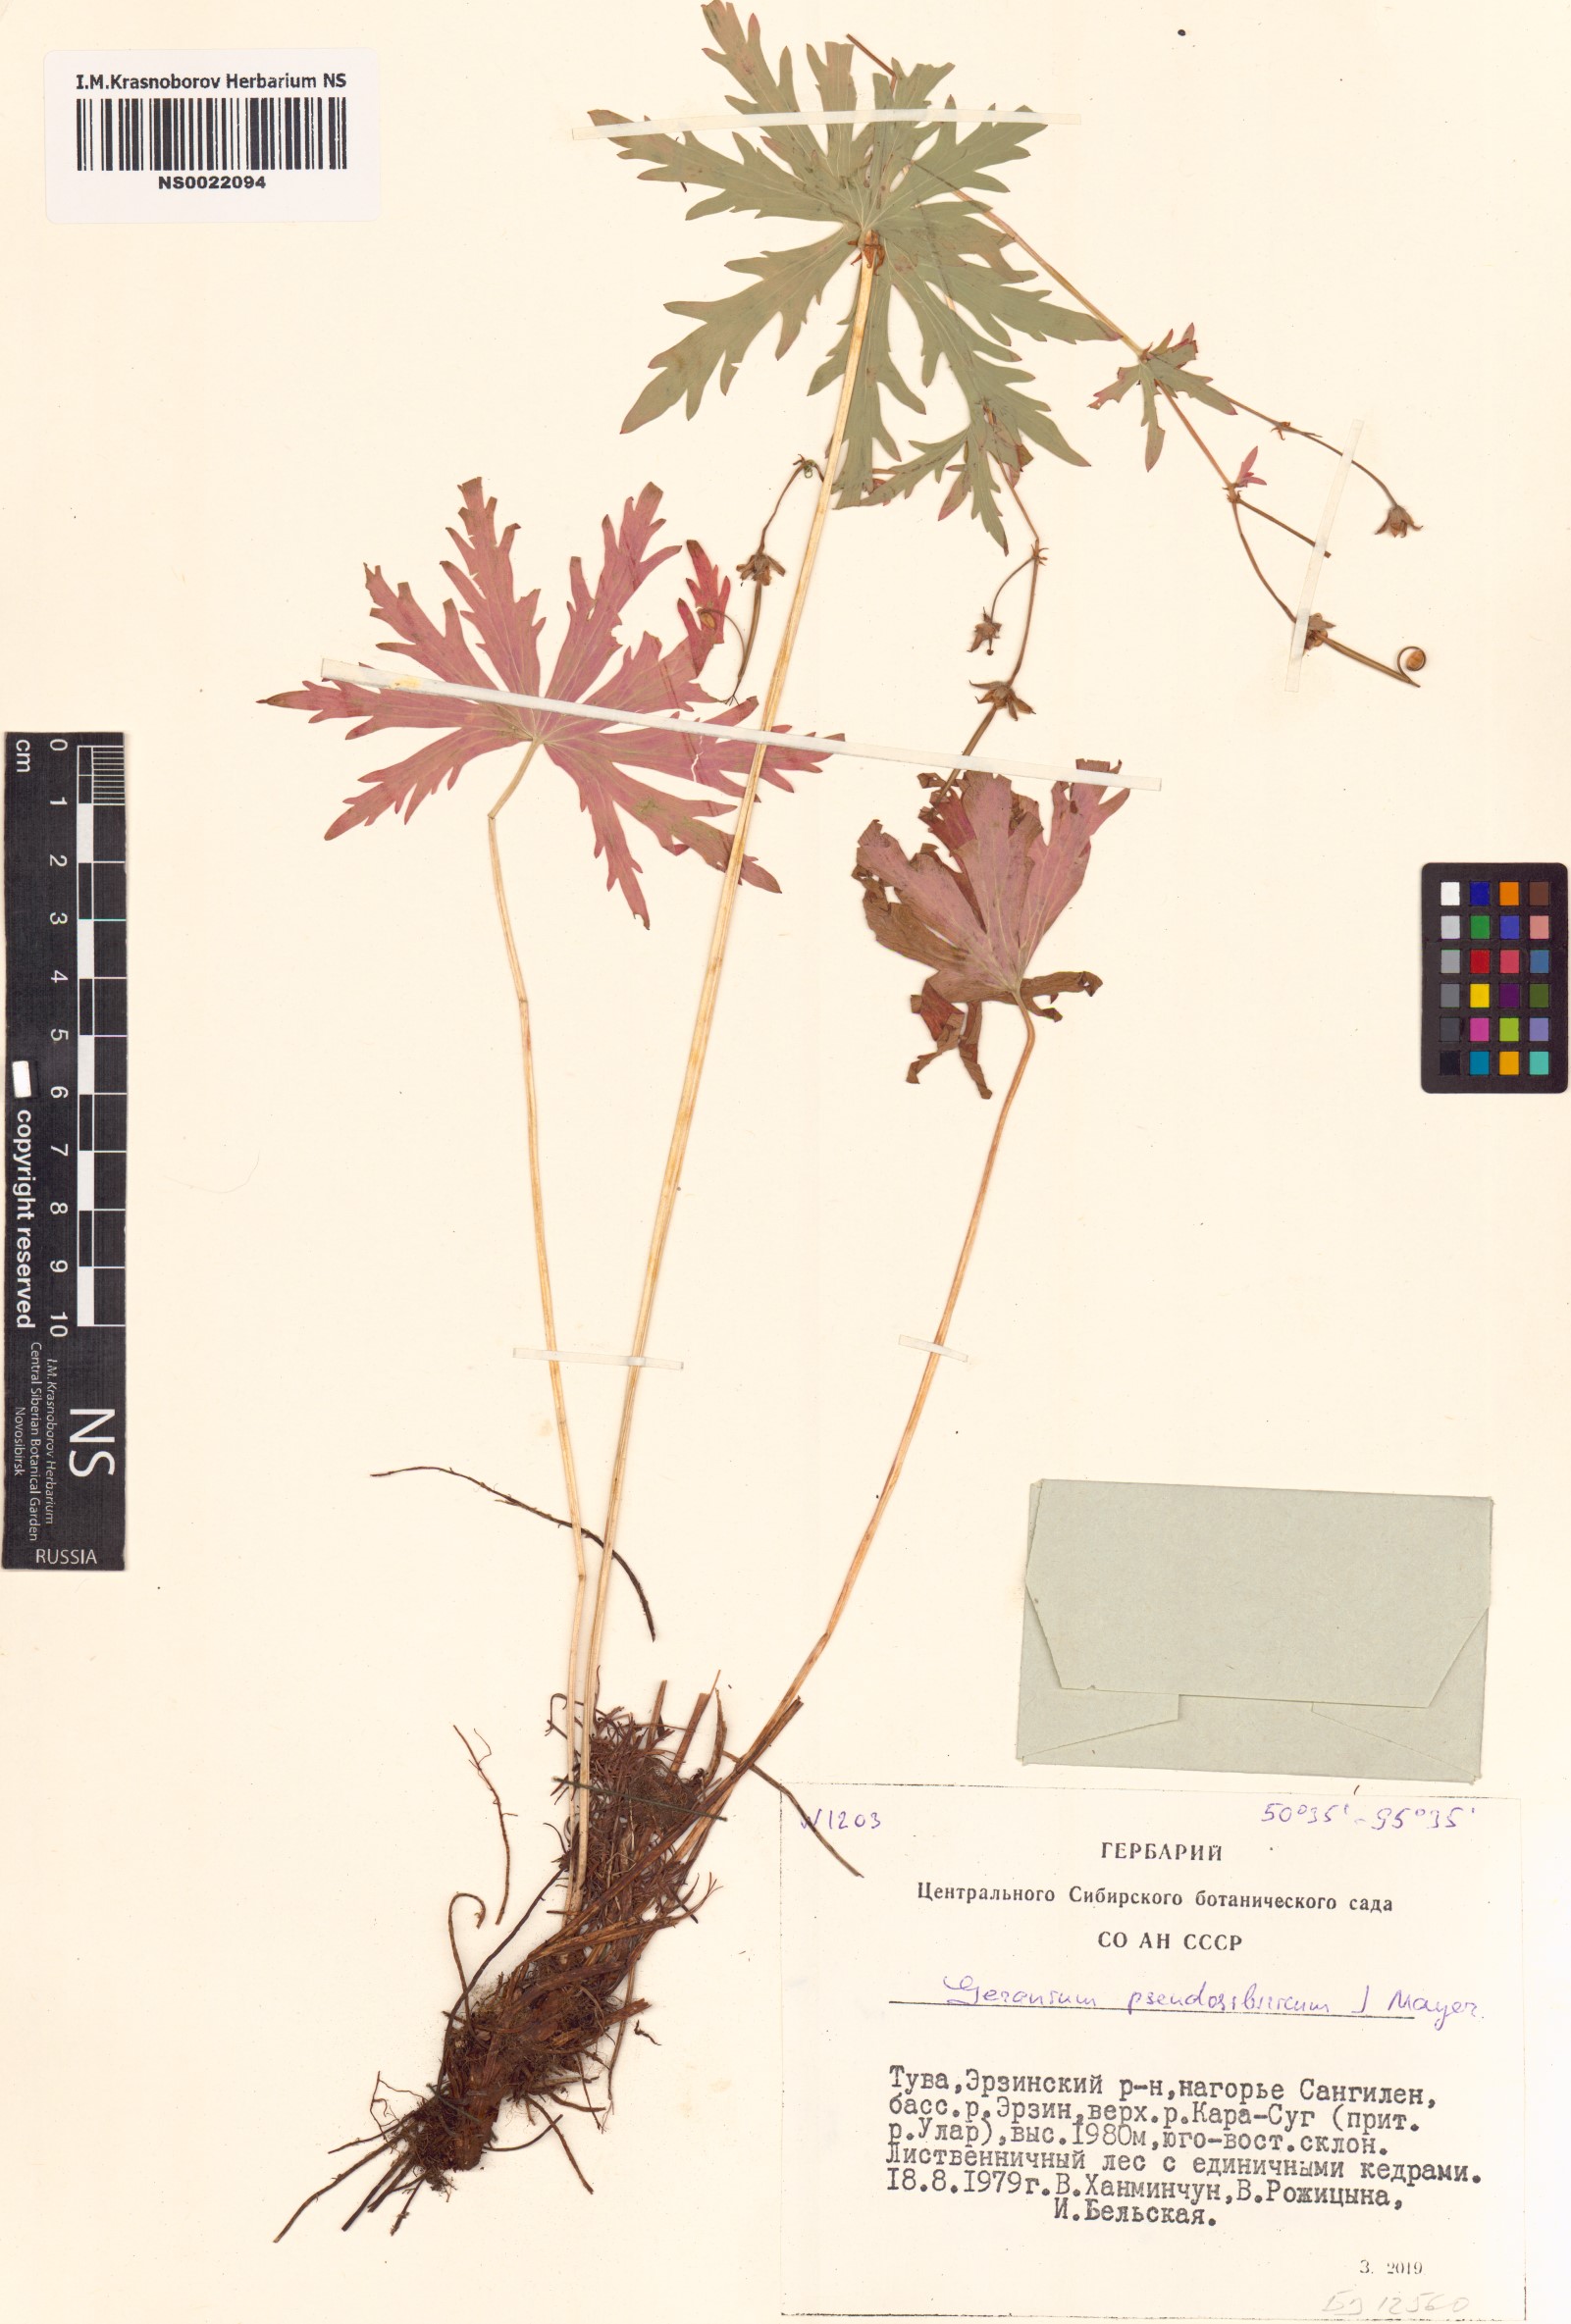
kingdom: Plantae
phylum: Tracheophyta
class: Magnoliopsida
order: Geraniales
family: Geraniaceae
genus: Geranium
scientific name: Geranium pseudosibiricum
